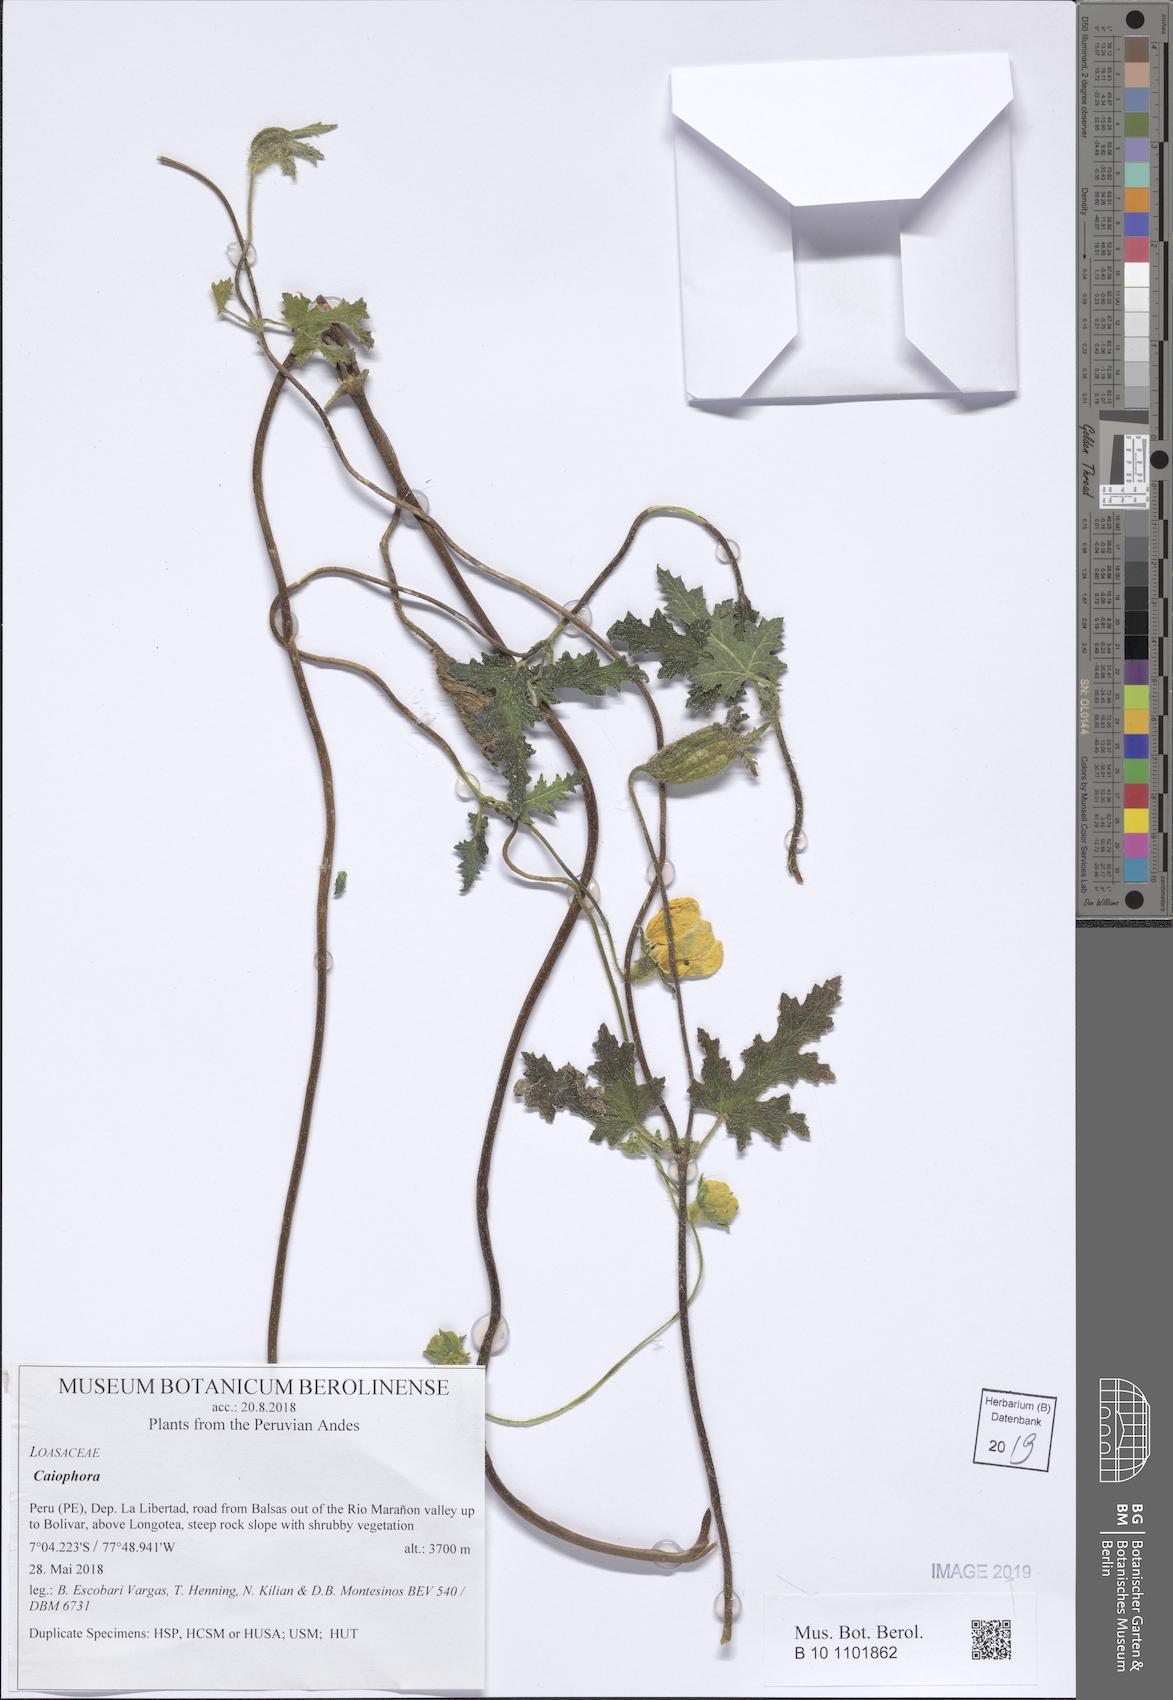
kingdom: Plantae
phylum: Tracheophyta
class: Magnoliopsida
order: Cornales
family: Loasaceae
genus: Caiophora
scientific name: Caiophora
